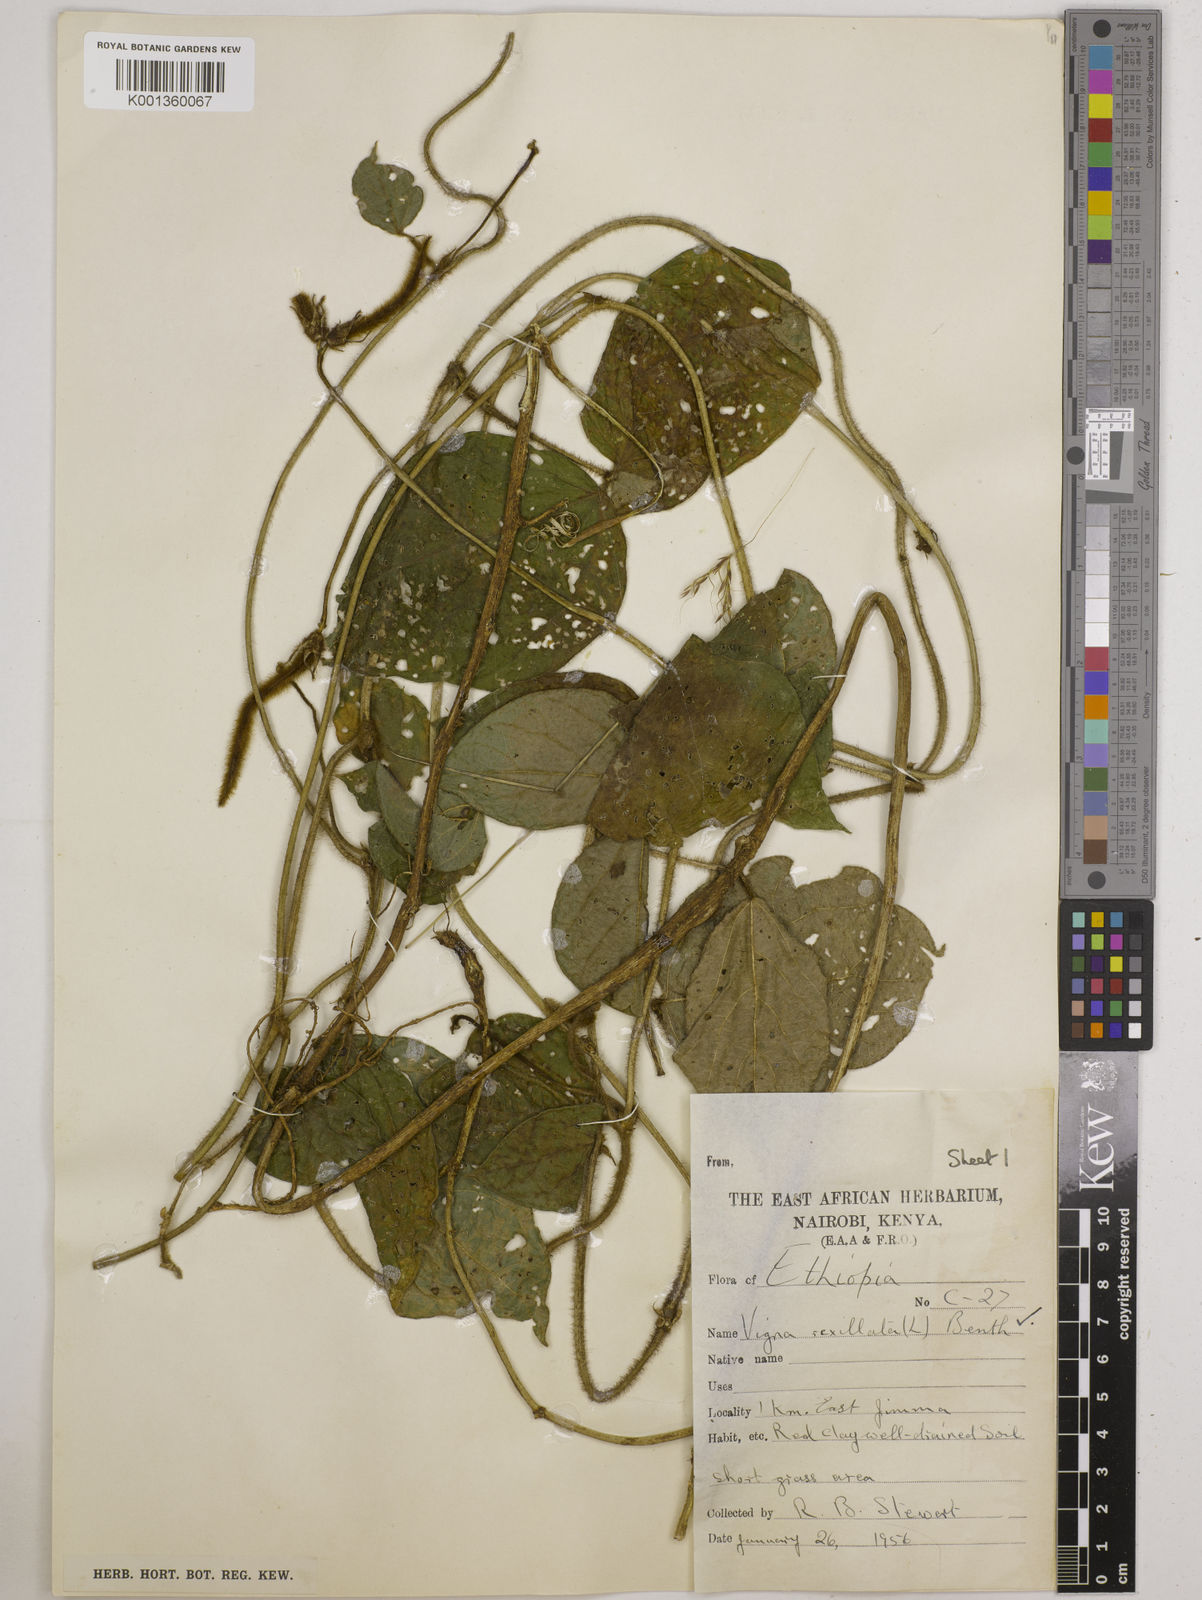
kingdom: Plantae
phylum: Tracheophyta
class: Magnoliopsida
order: Fabales
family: Fabaceae
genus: Vigna
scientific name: Vigna vexillata
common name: Zombi pea
